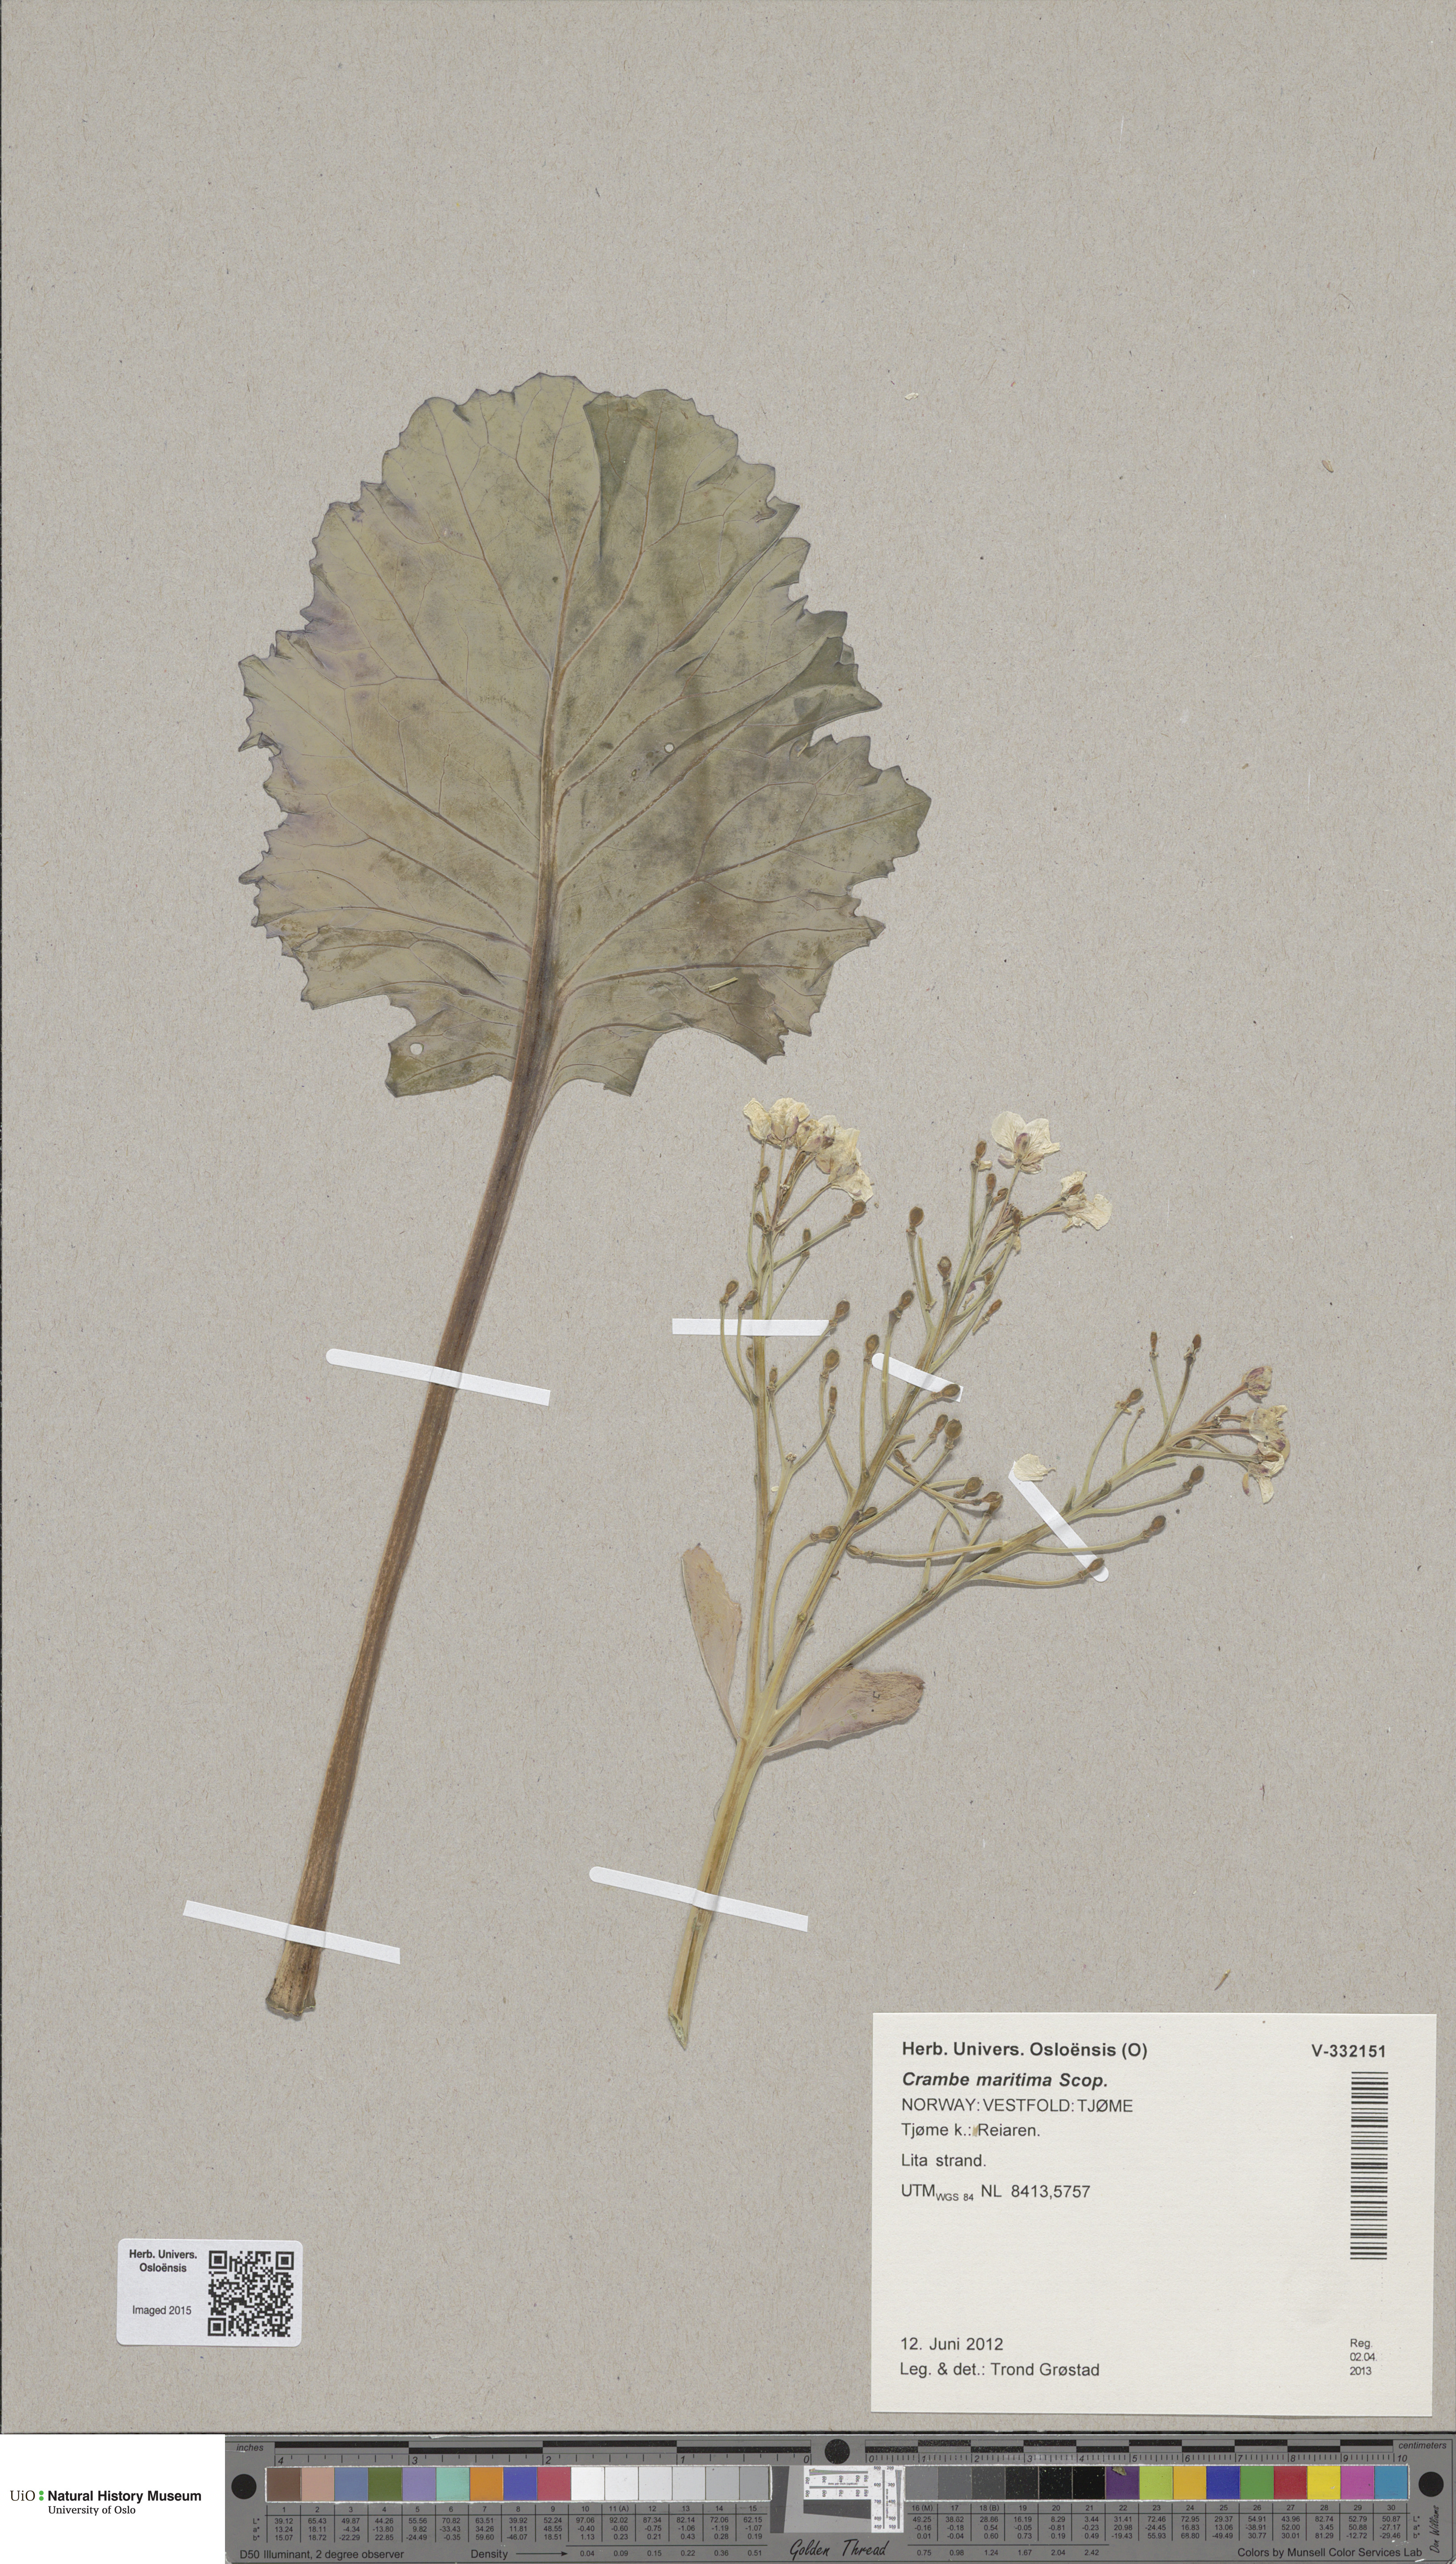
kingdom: Plantae
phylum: Tracheophyta
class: Magnoliopsida
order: Brassicales
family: Brassicaceae
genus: Crambe
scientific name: Crambe maritima
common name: Sea-kale
